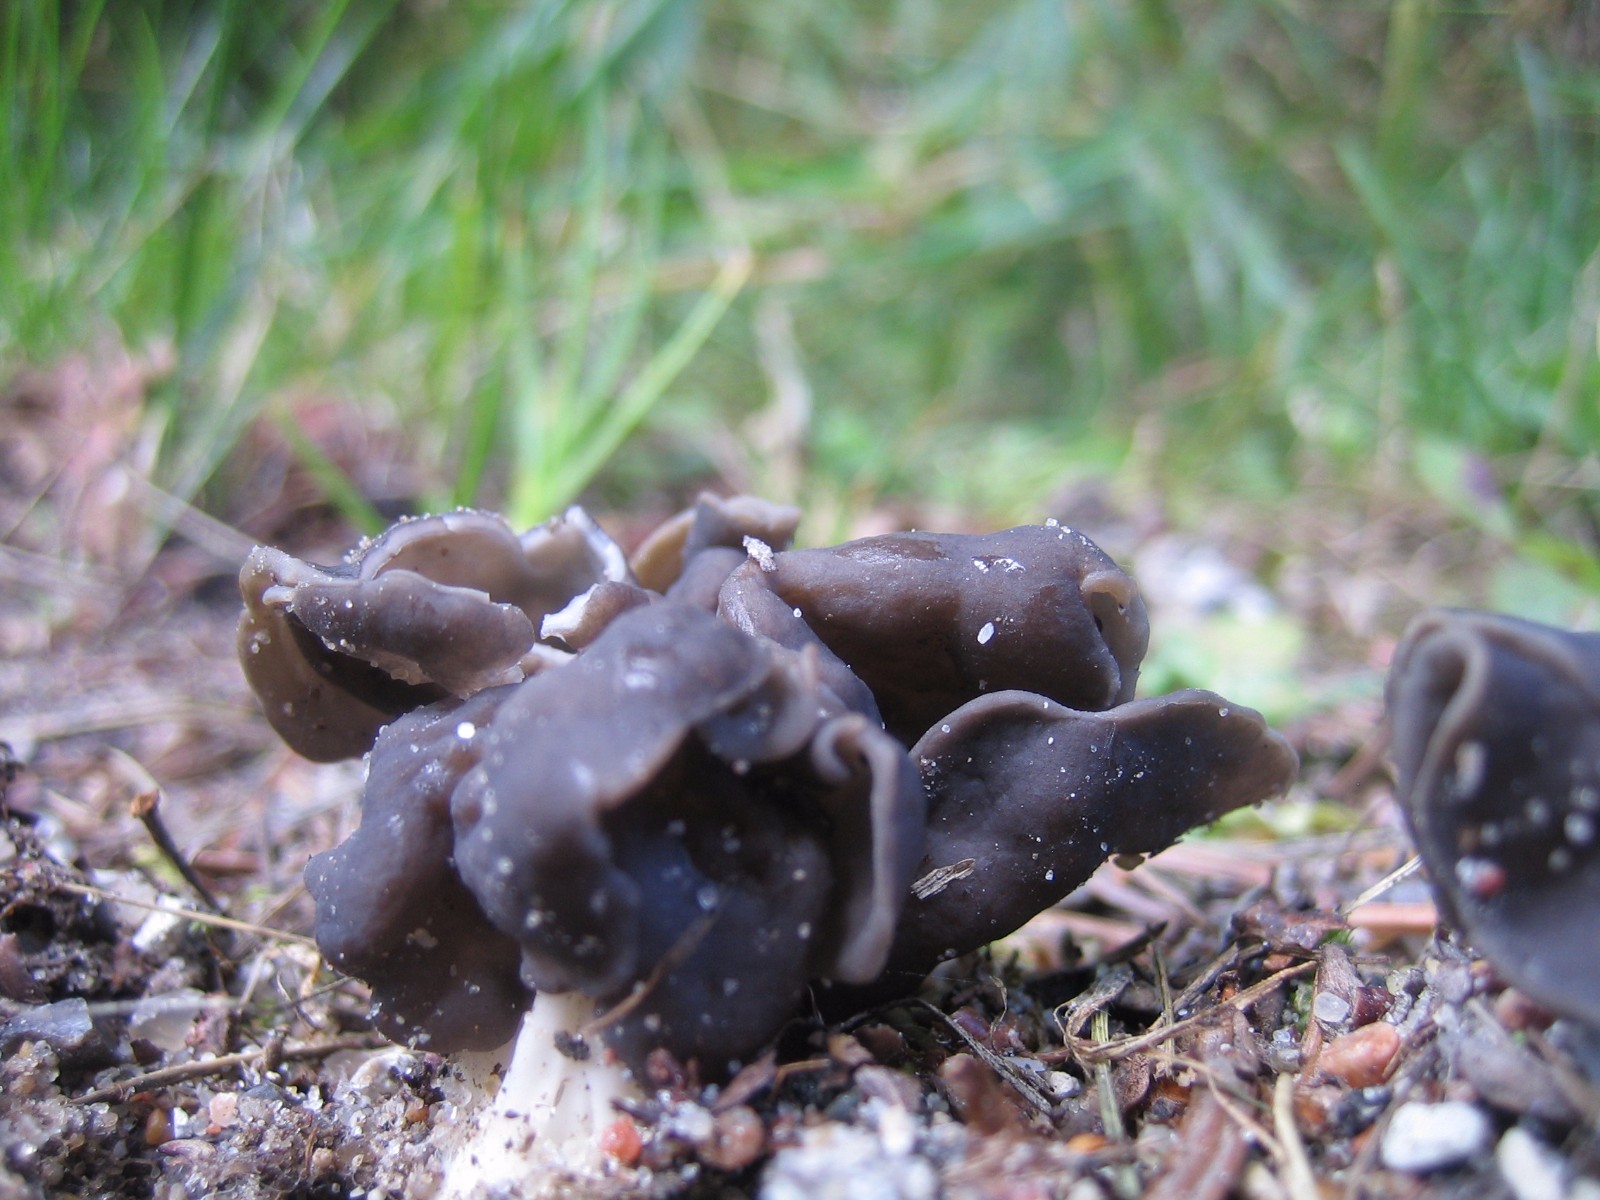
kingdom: Fungi
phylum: Ascomycota
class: Pezizomycetes
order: Pezizales
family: Helvellaceae
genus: Helvella
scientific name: Helvella lacunosa
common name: grubet foldhat
